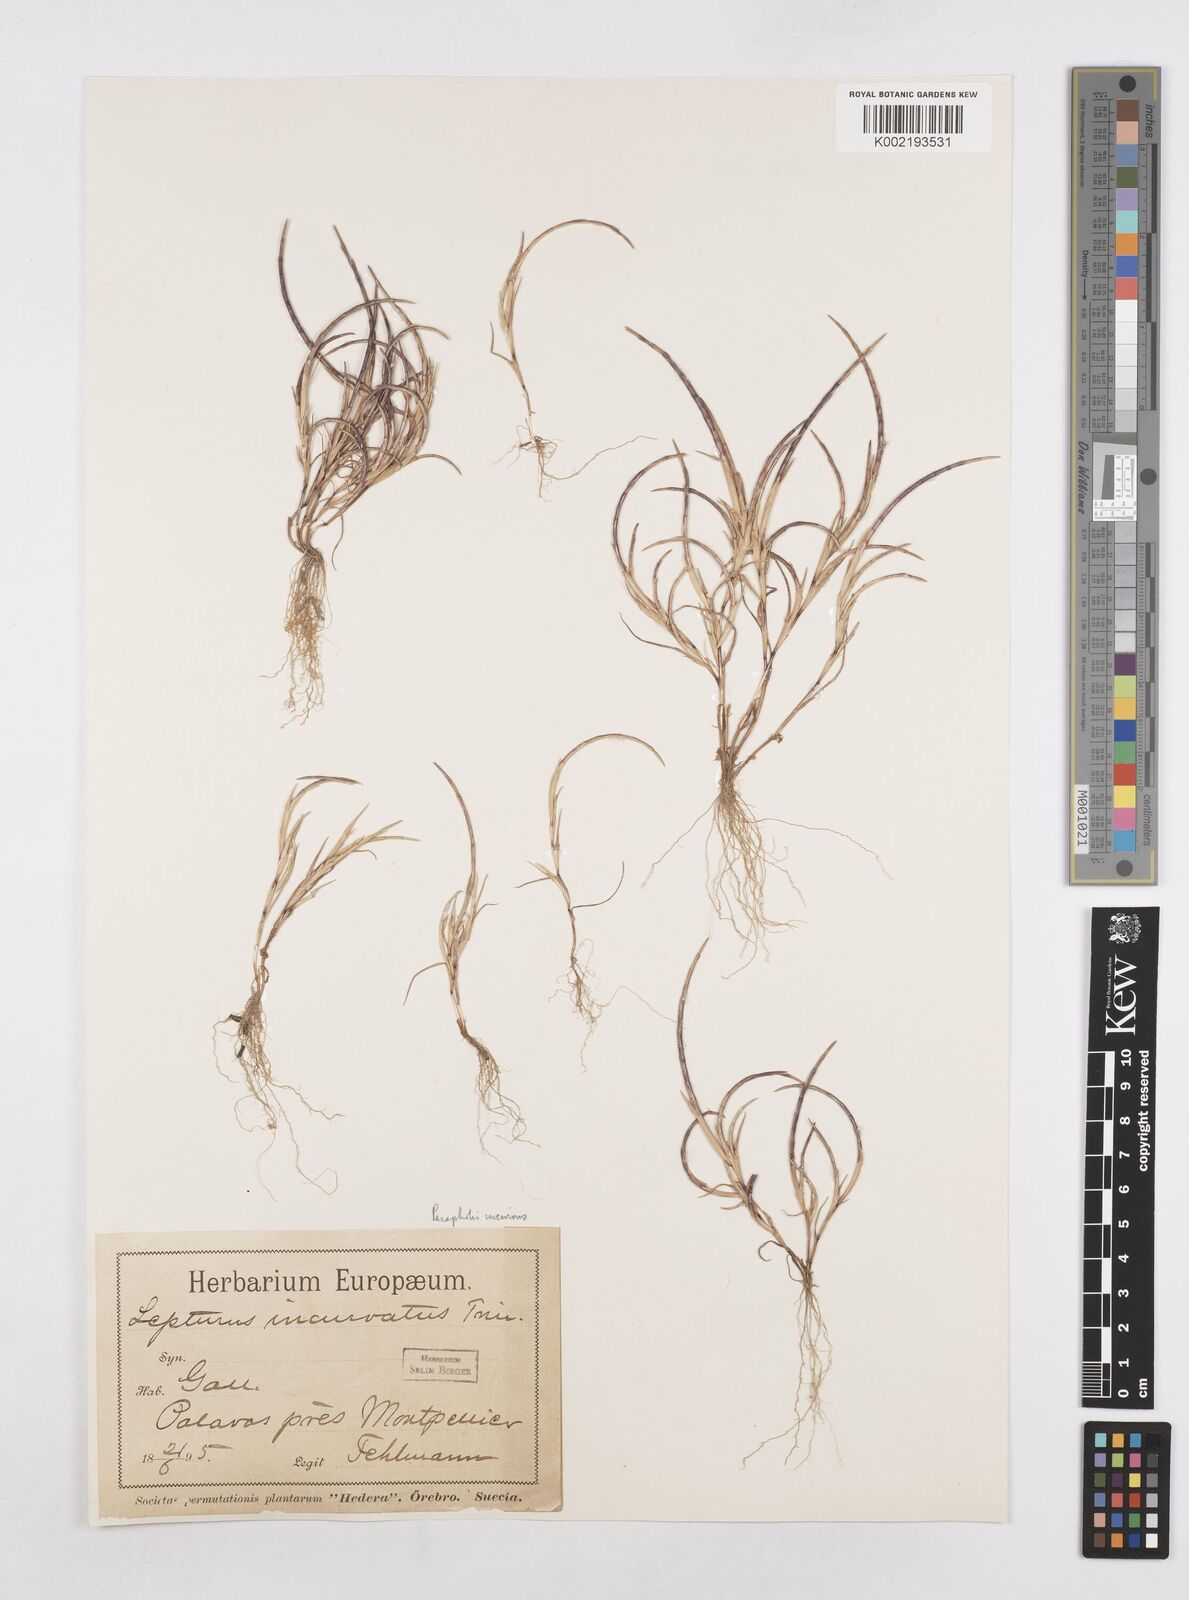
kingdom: Plantae
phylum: Tracheophyta
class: Liliopsida
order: Poales
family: Poaceae
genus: Parapholis
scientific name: Parapholis incurva
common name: Curved sicklegrass
